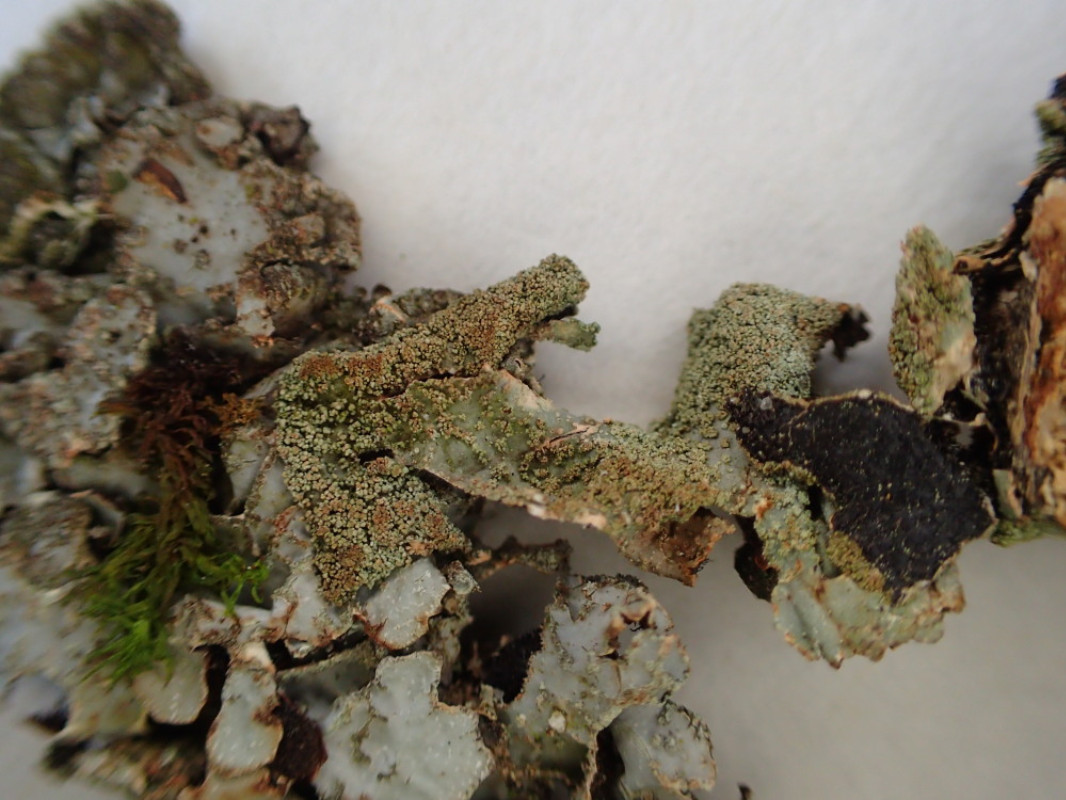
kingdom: Fungi
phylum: Ascomycota
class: Lecanoromycetes
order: Lecanorales
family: Parmeliaceae
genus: Parmelia
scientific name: Parmelia submontana
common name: langlobet skållav
